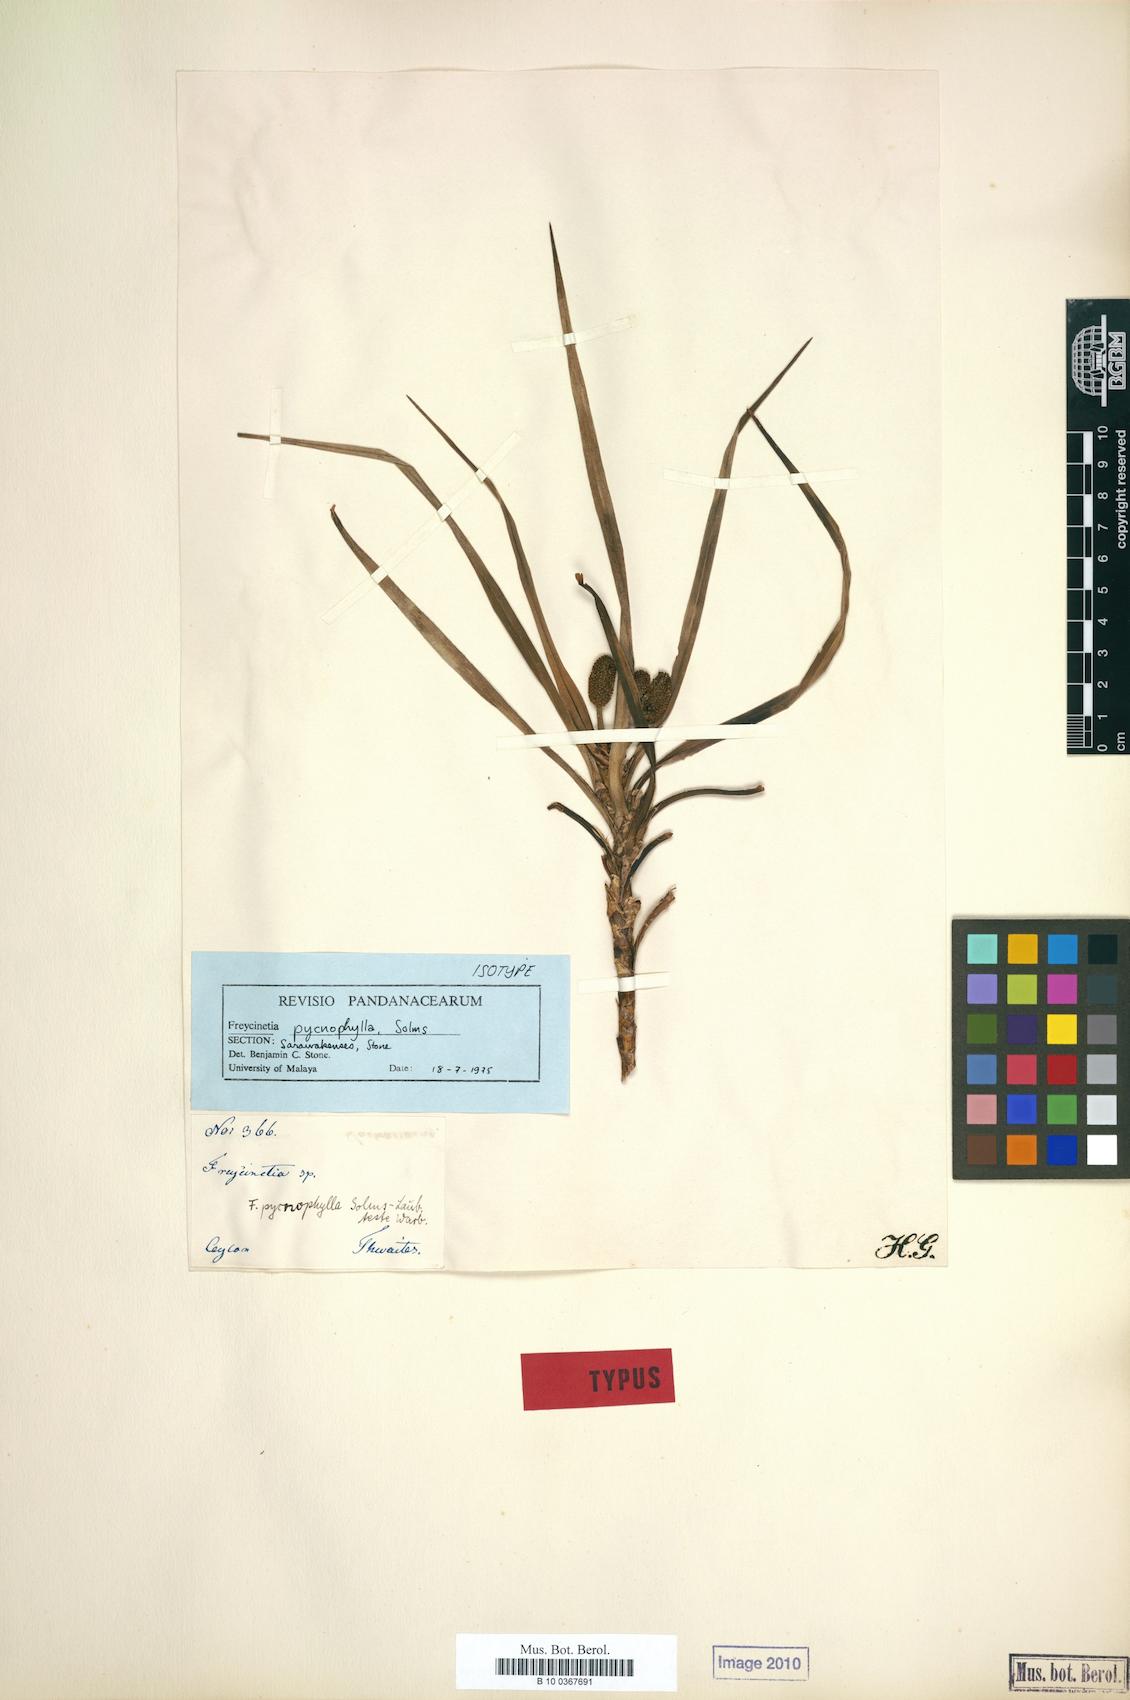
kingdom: Plantae
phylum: Tracheophyta
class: Liliopsida
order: Pandanales
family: Pandanaceae
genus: Freycinetia
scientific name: Freycinetia pycnophylla
